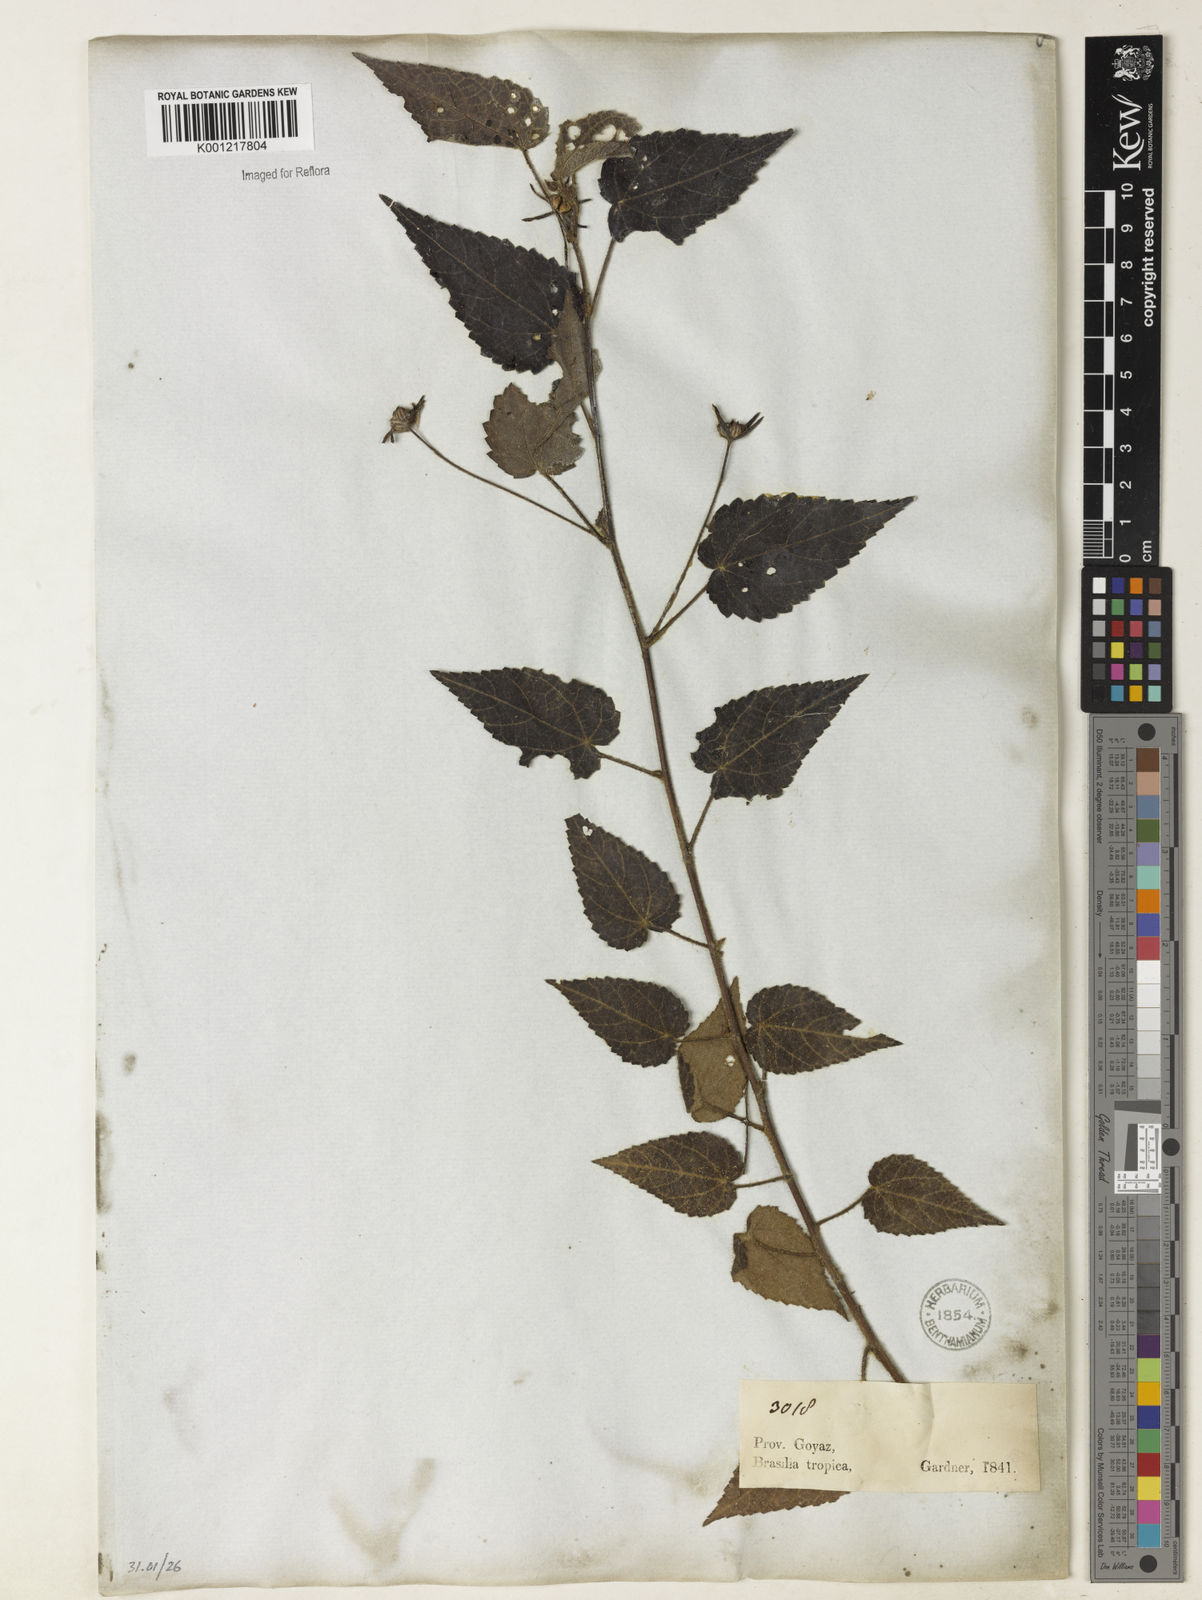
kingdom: Plantae
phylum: Tracheophyta
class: Magnoliopsida
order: Malvales
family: Malvaceae
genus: Pavonia
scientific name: Pavonia
